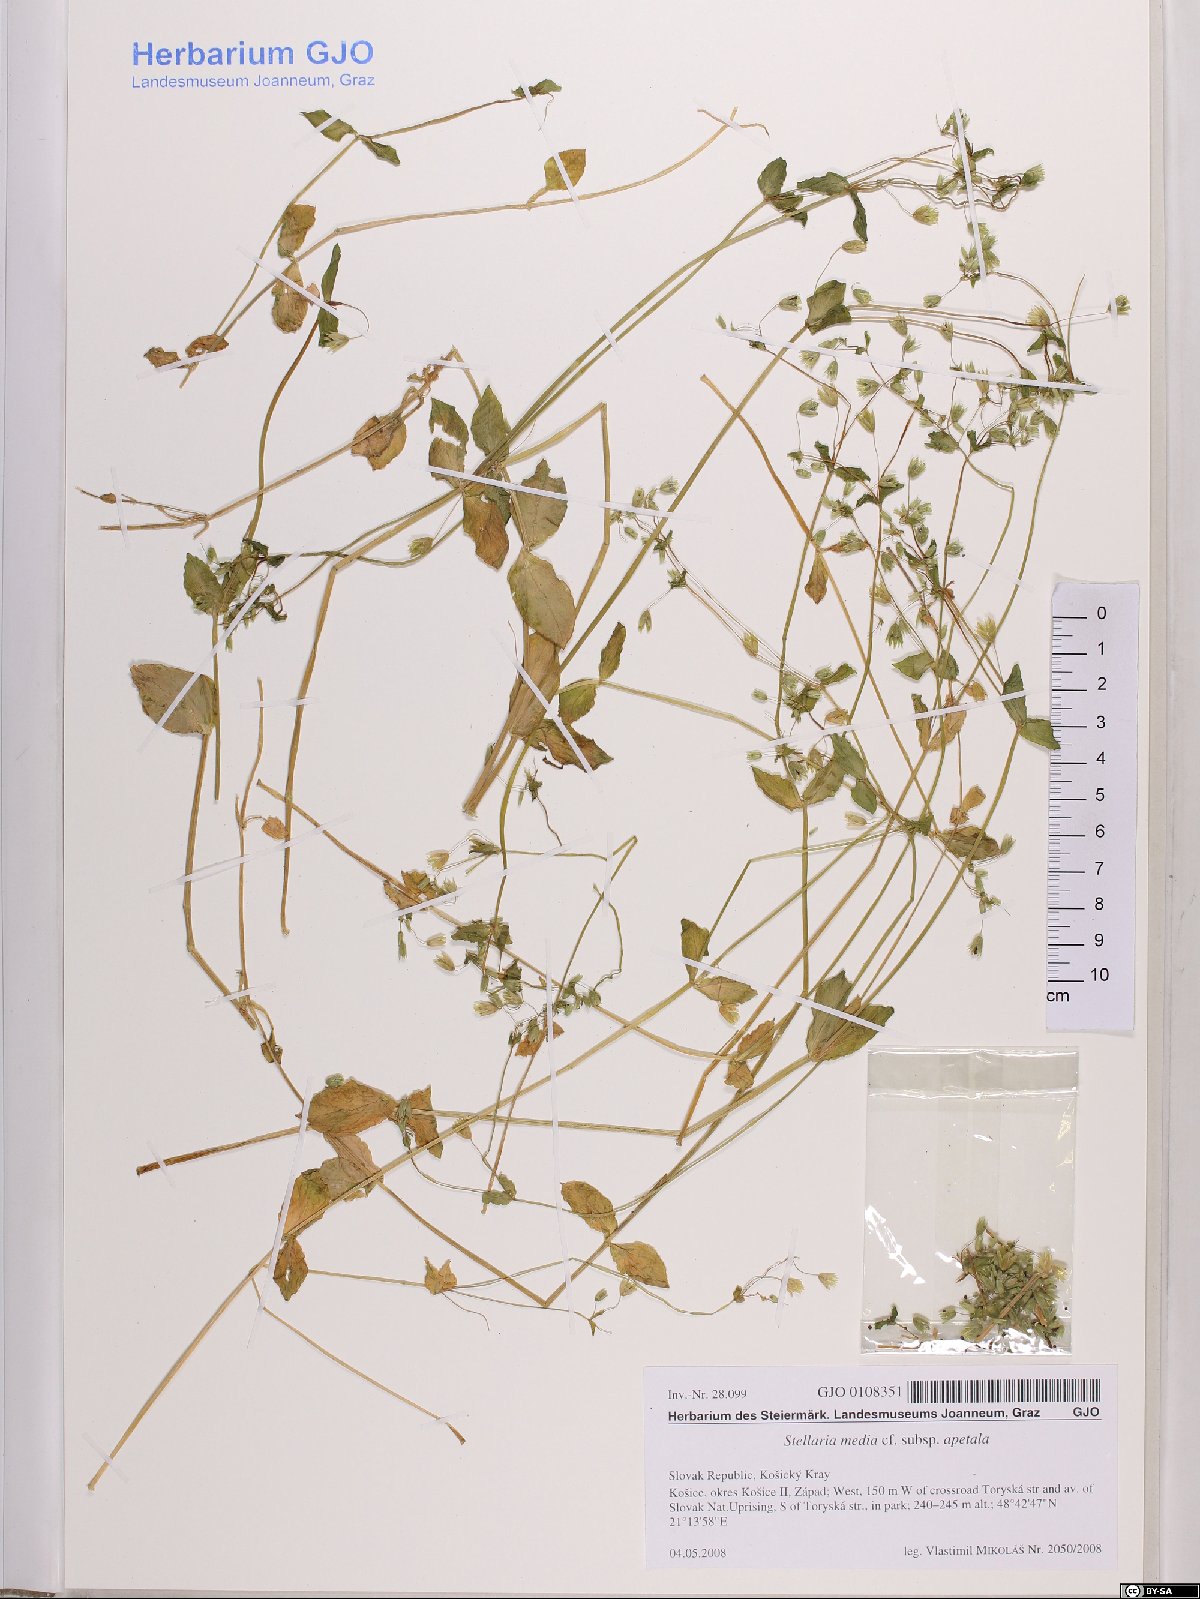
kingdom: Plantae
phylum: Tracheophyta
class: Magnoliopsida
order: Caryophyllales
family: Caryophyllaceae
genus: Stellaria
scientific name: Stellaria apetala
